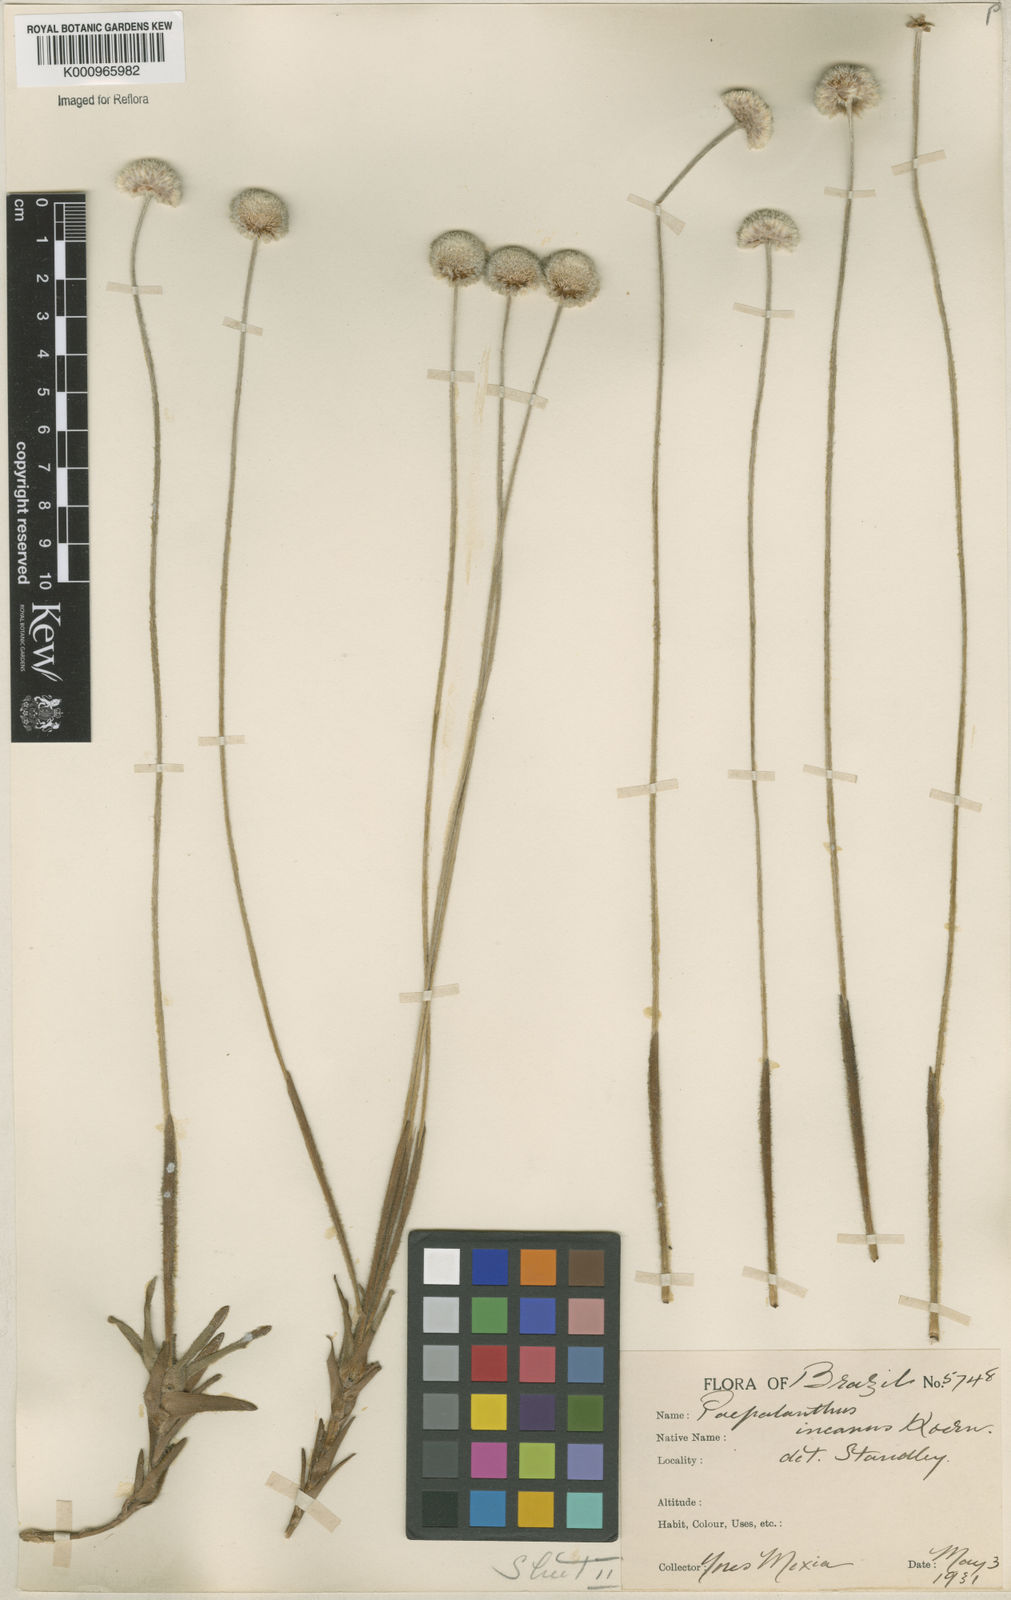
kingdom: Plantae
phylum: Tracheophyta
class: Liliopsida
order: Poales
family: Eriocaulaceae
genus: Paepalanthus
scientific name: Paepalanthus
